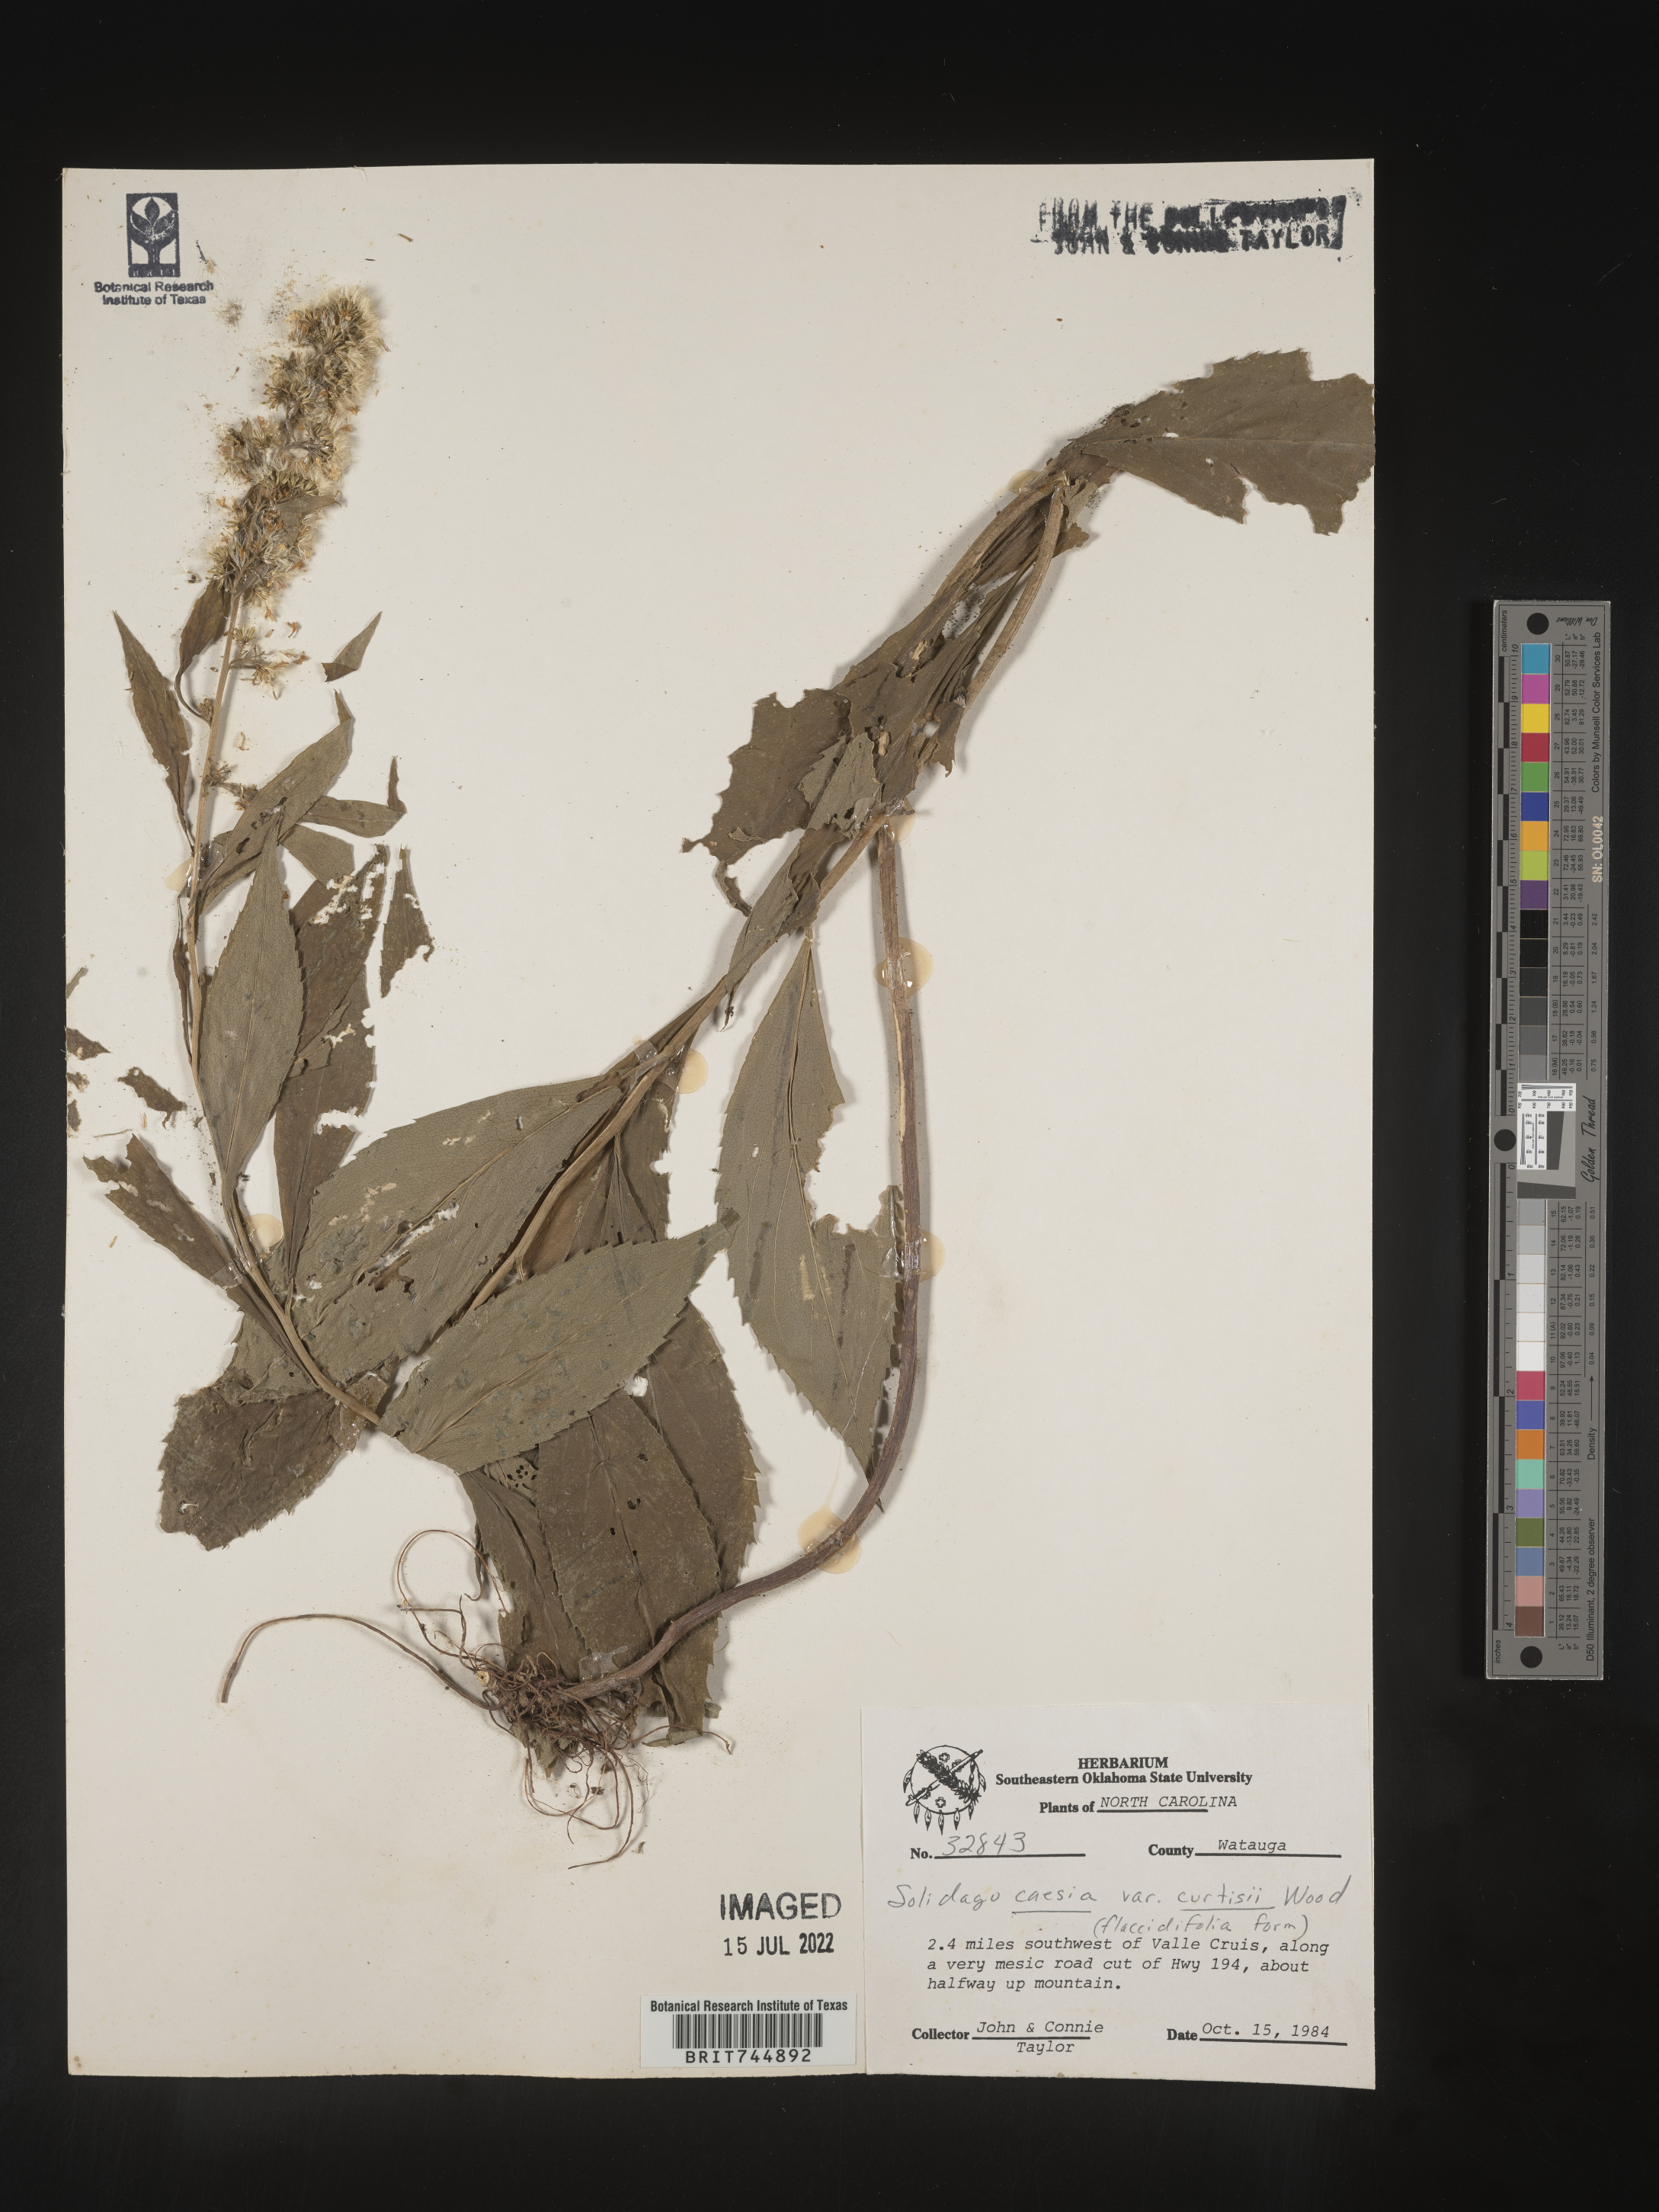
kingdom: Plantae
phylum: Tracheophyta
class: Magnoliopsida
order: Asterales
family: Asteraceae
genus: Solidago
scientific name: Solidago curtisii
